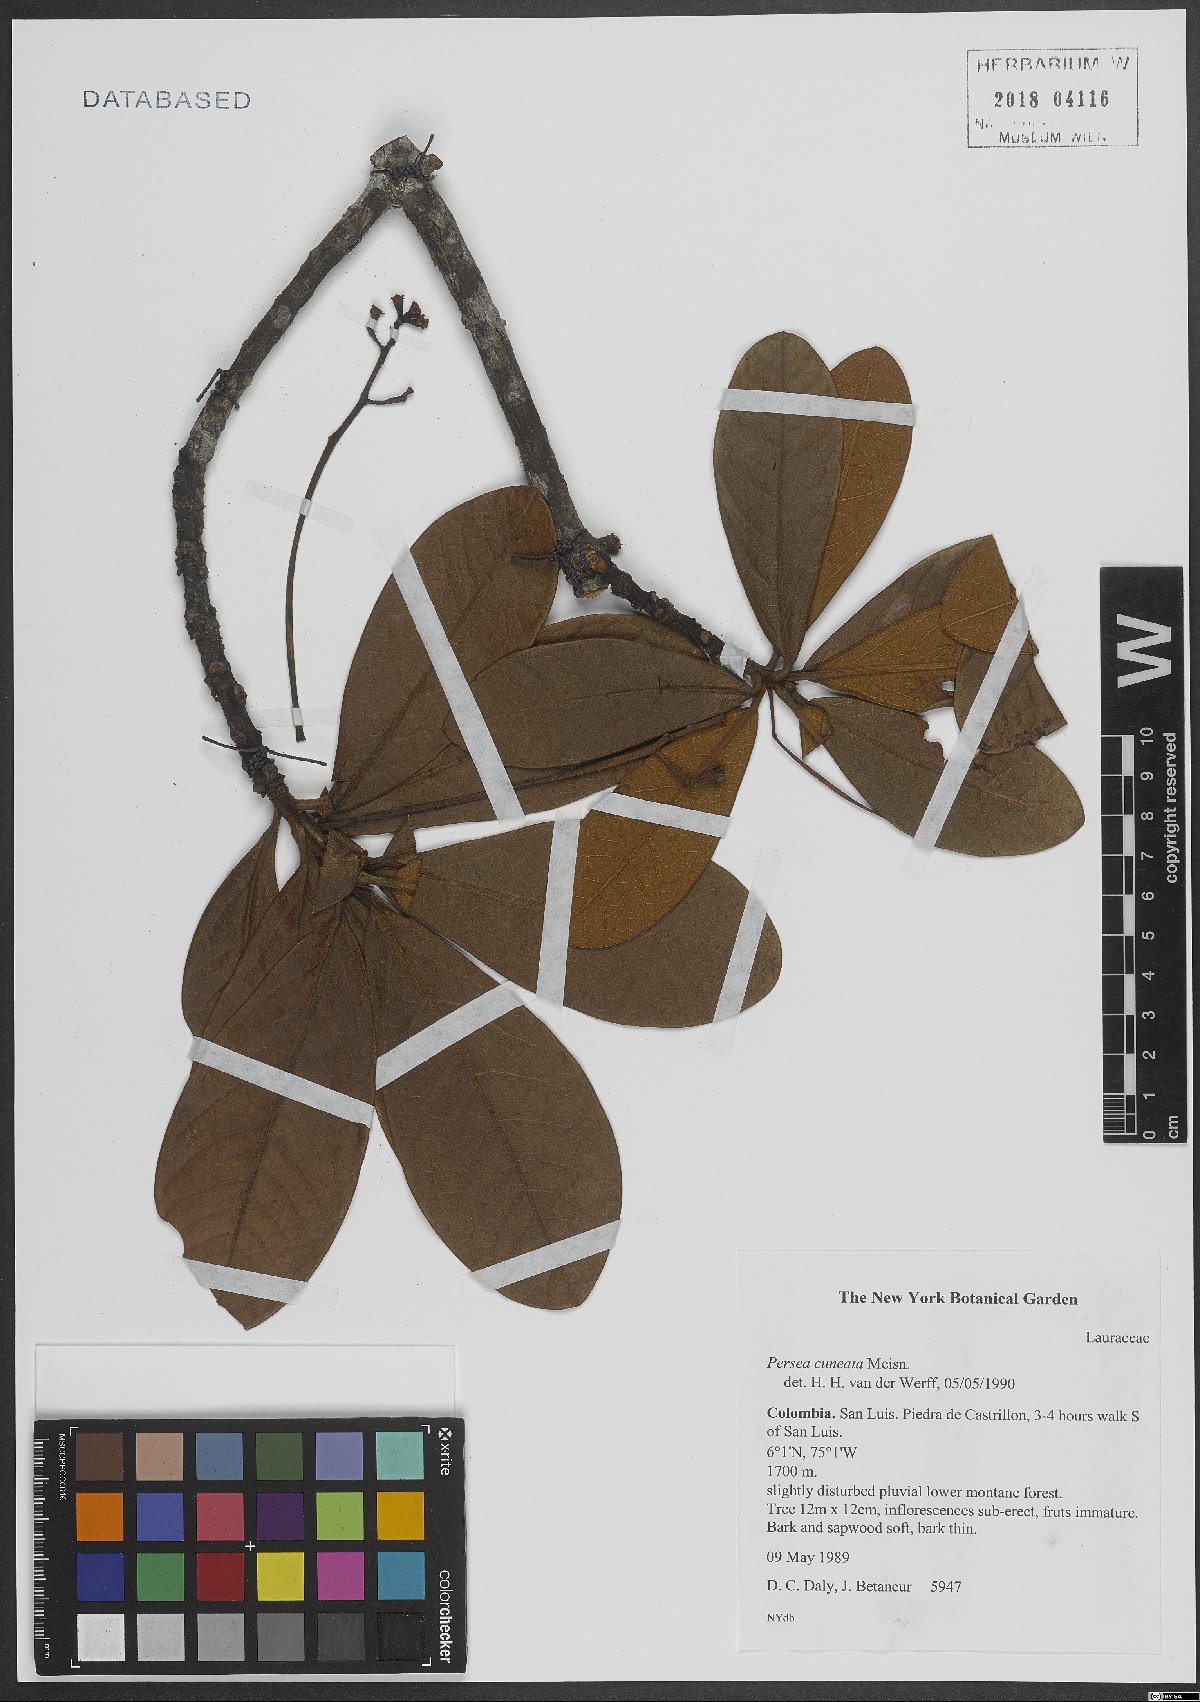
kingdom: Plantae
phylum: Tracheophyta
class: Magnoliopsida
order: Laurales
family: Lauraceae
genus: Persea
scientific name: Persea
